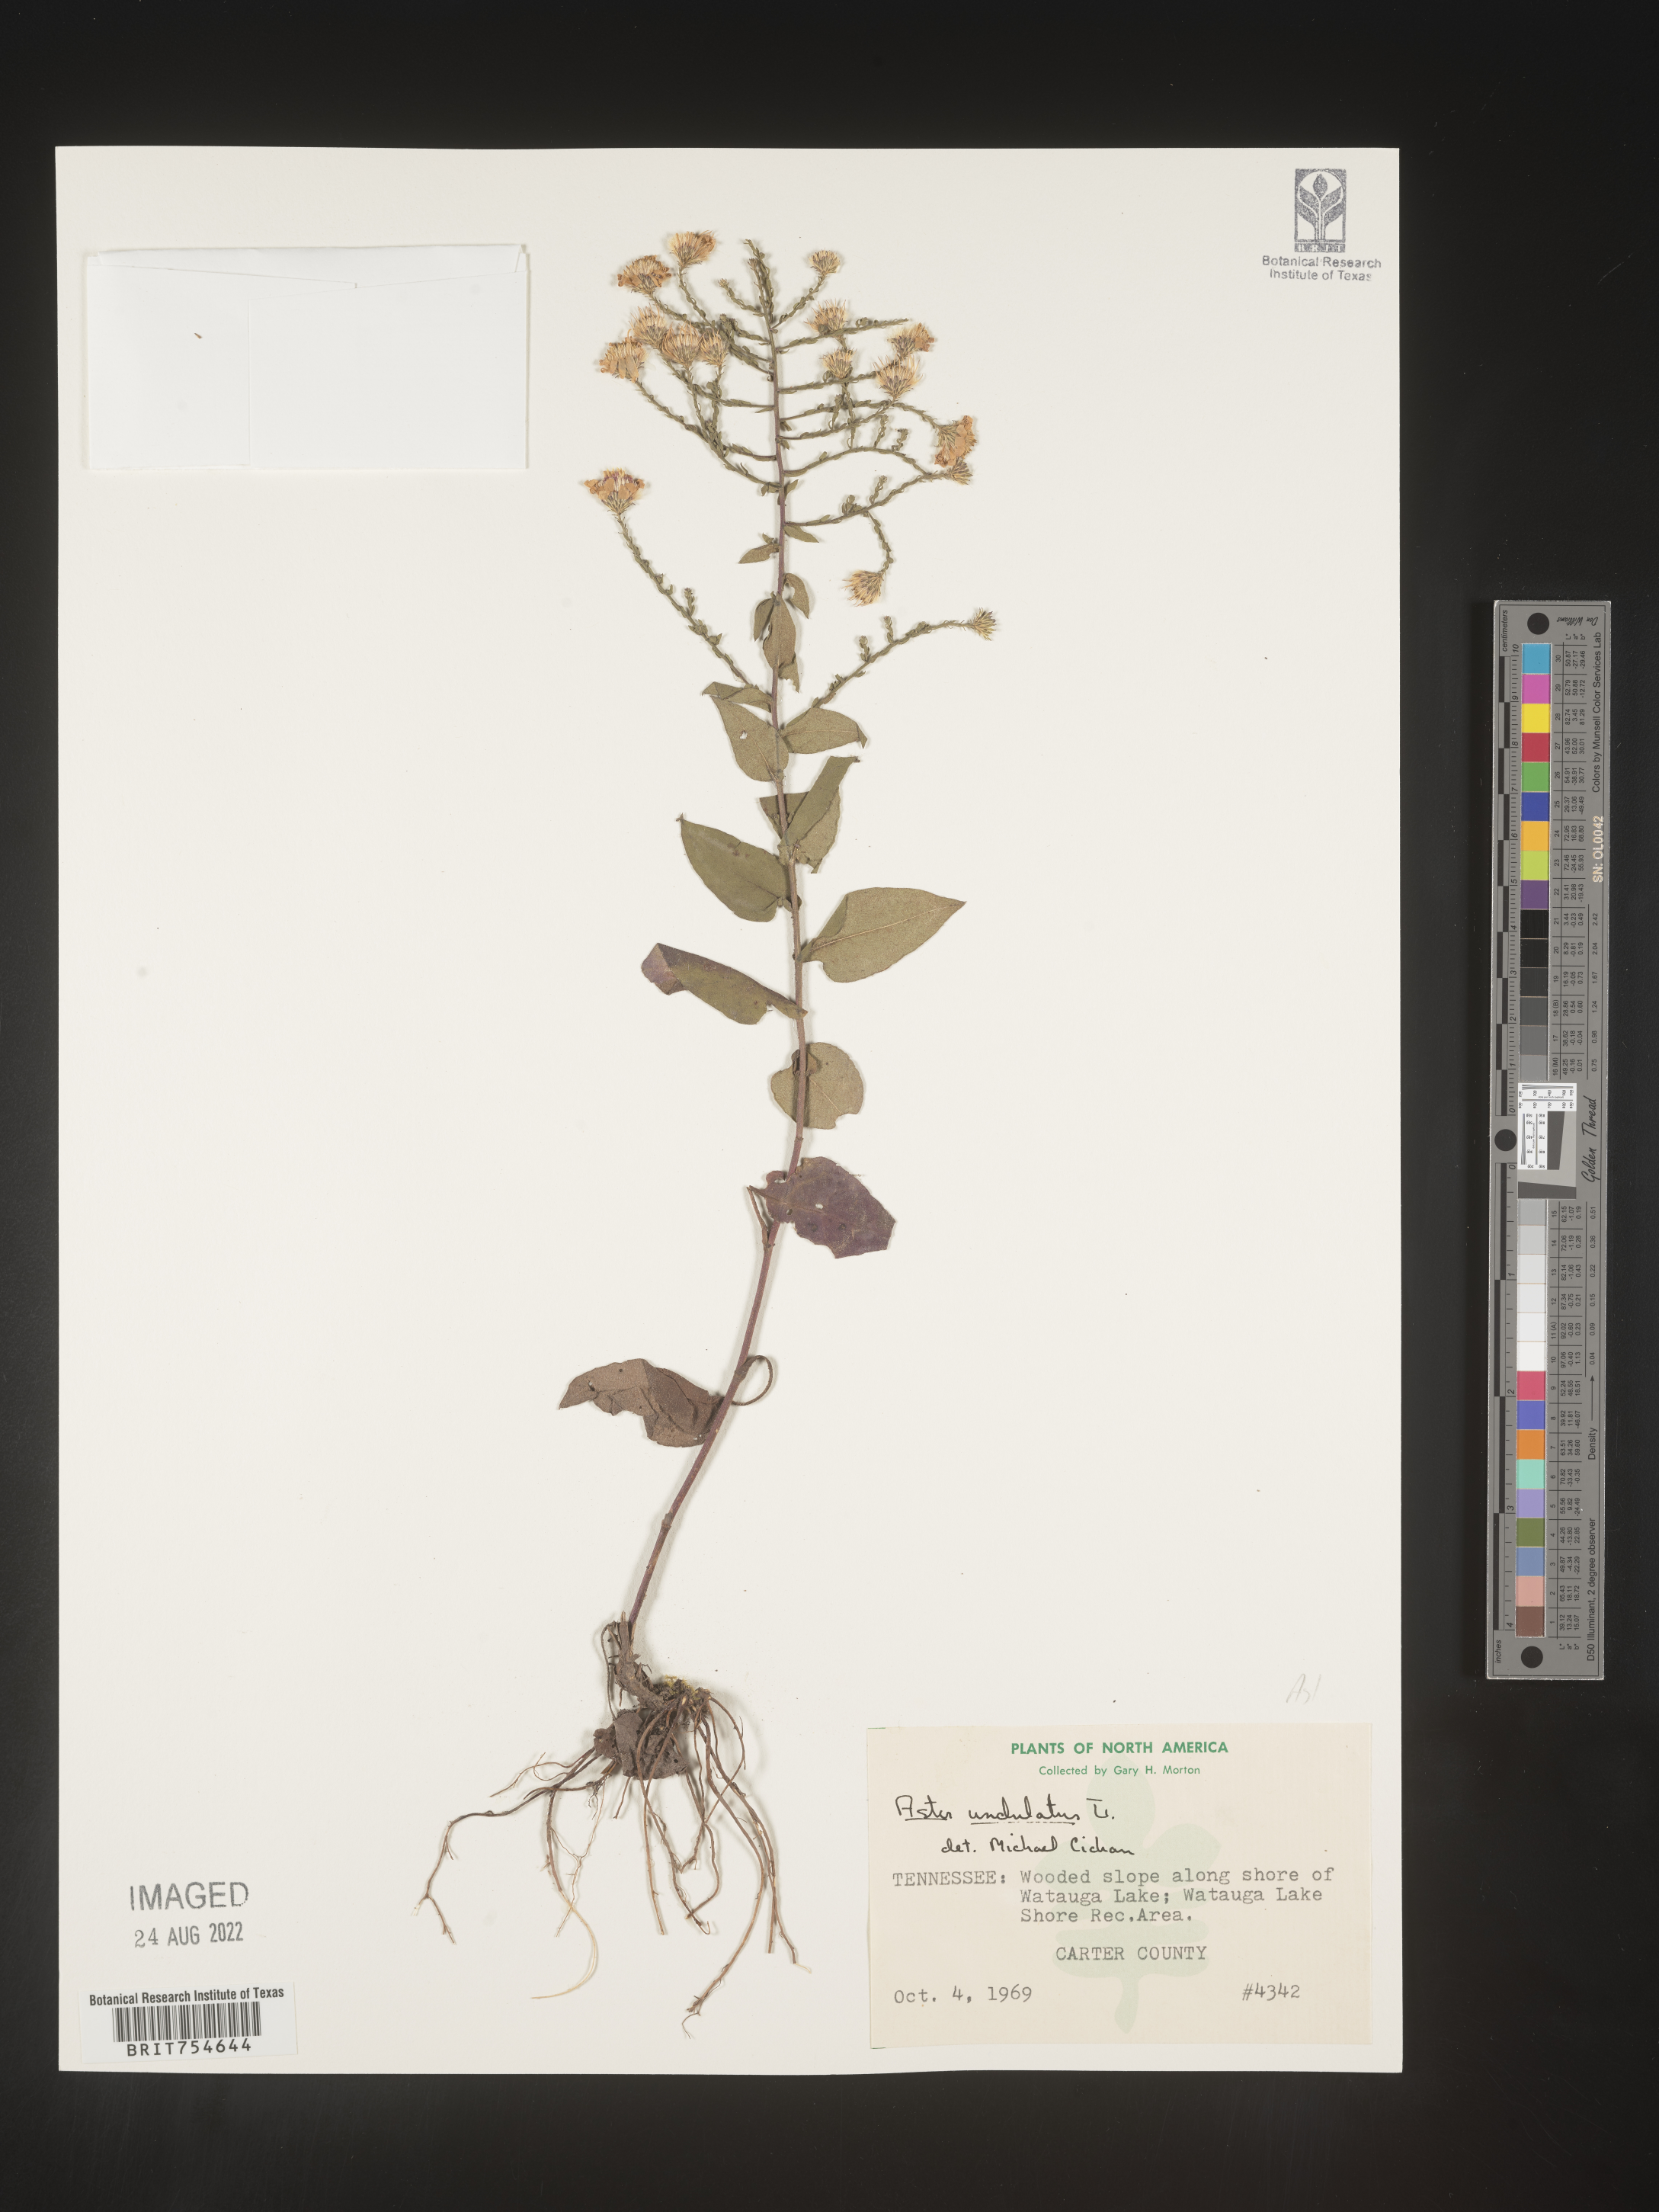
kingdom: Plantae
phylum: Tracheophyta
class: Magnoliopsida
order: Asterales
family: Asteraceae
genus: Symphyotrichum
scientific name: Symphyotrichum undulatum
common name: Clasping heart-leaf aster
